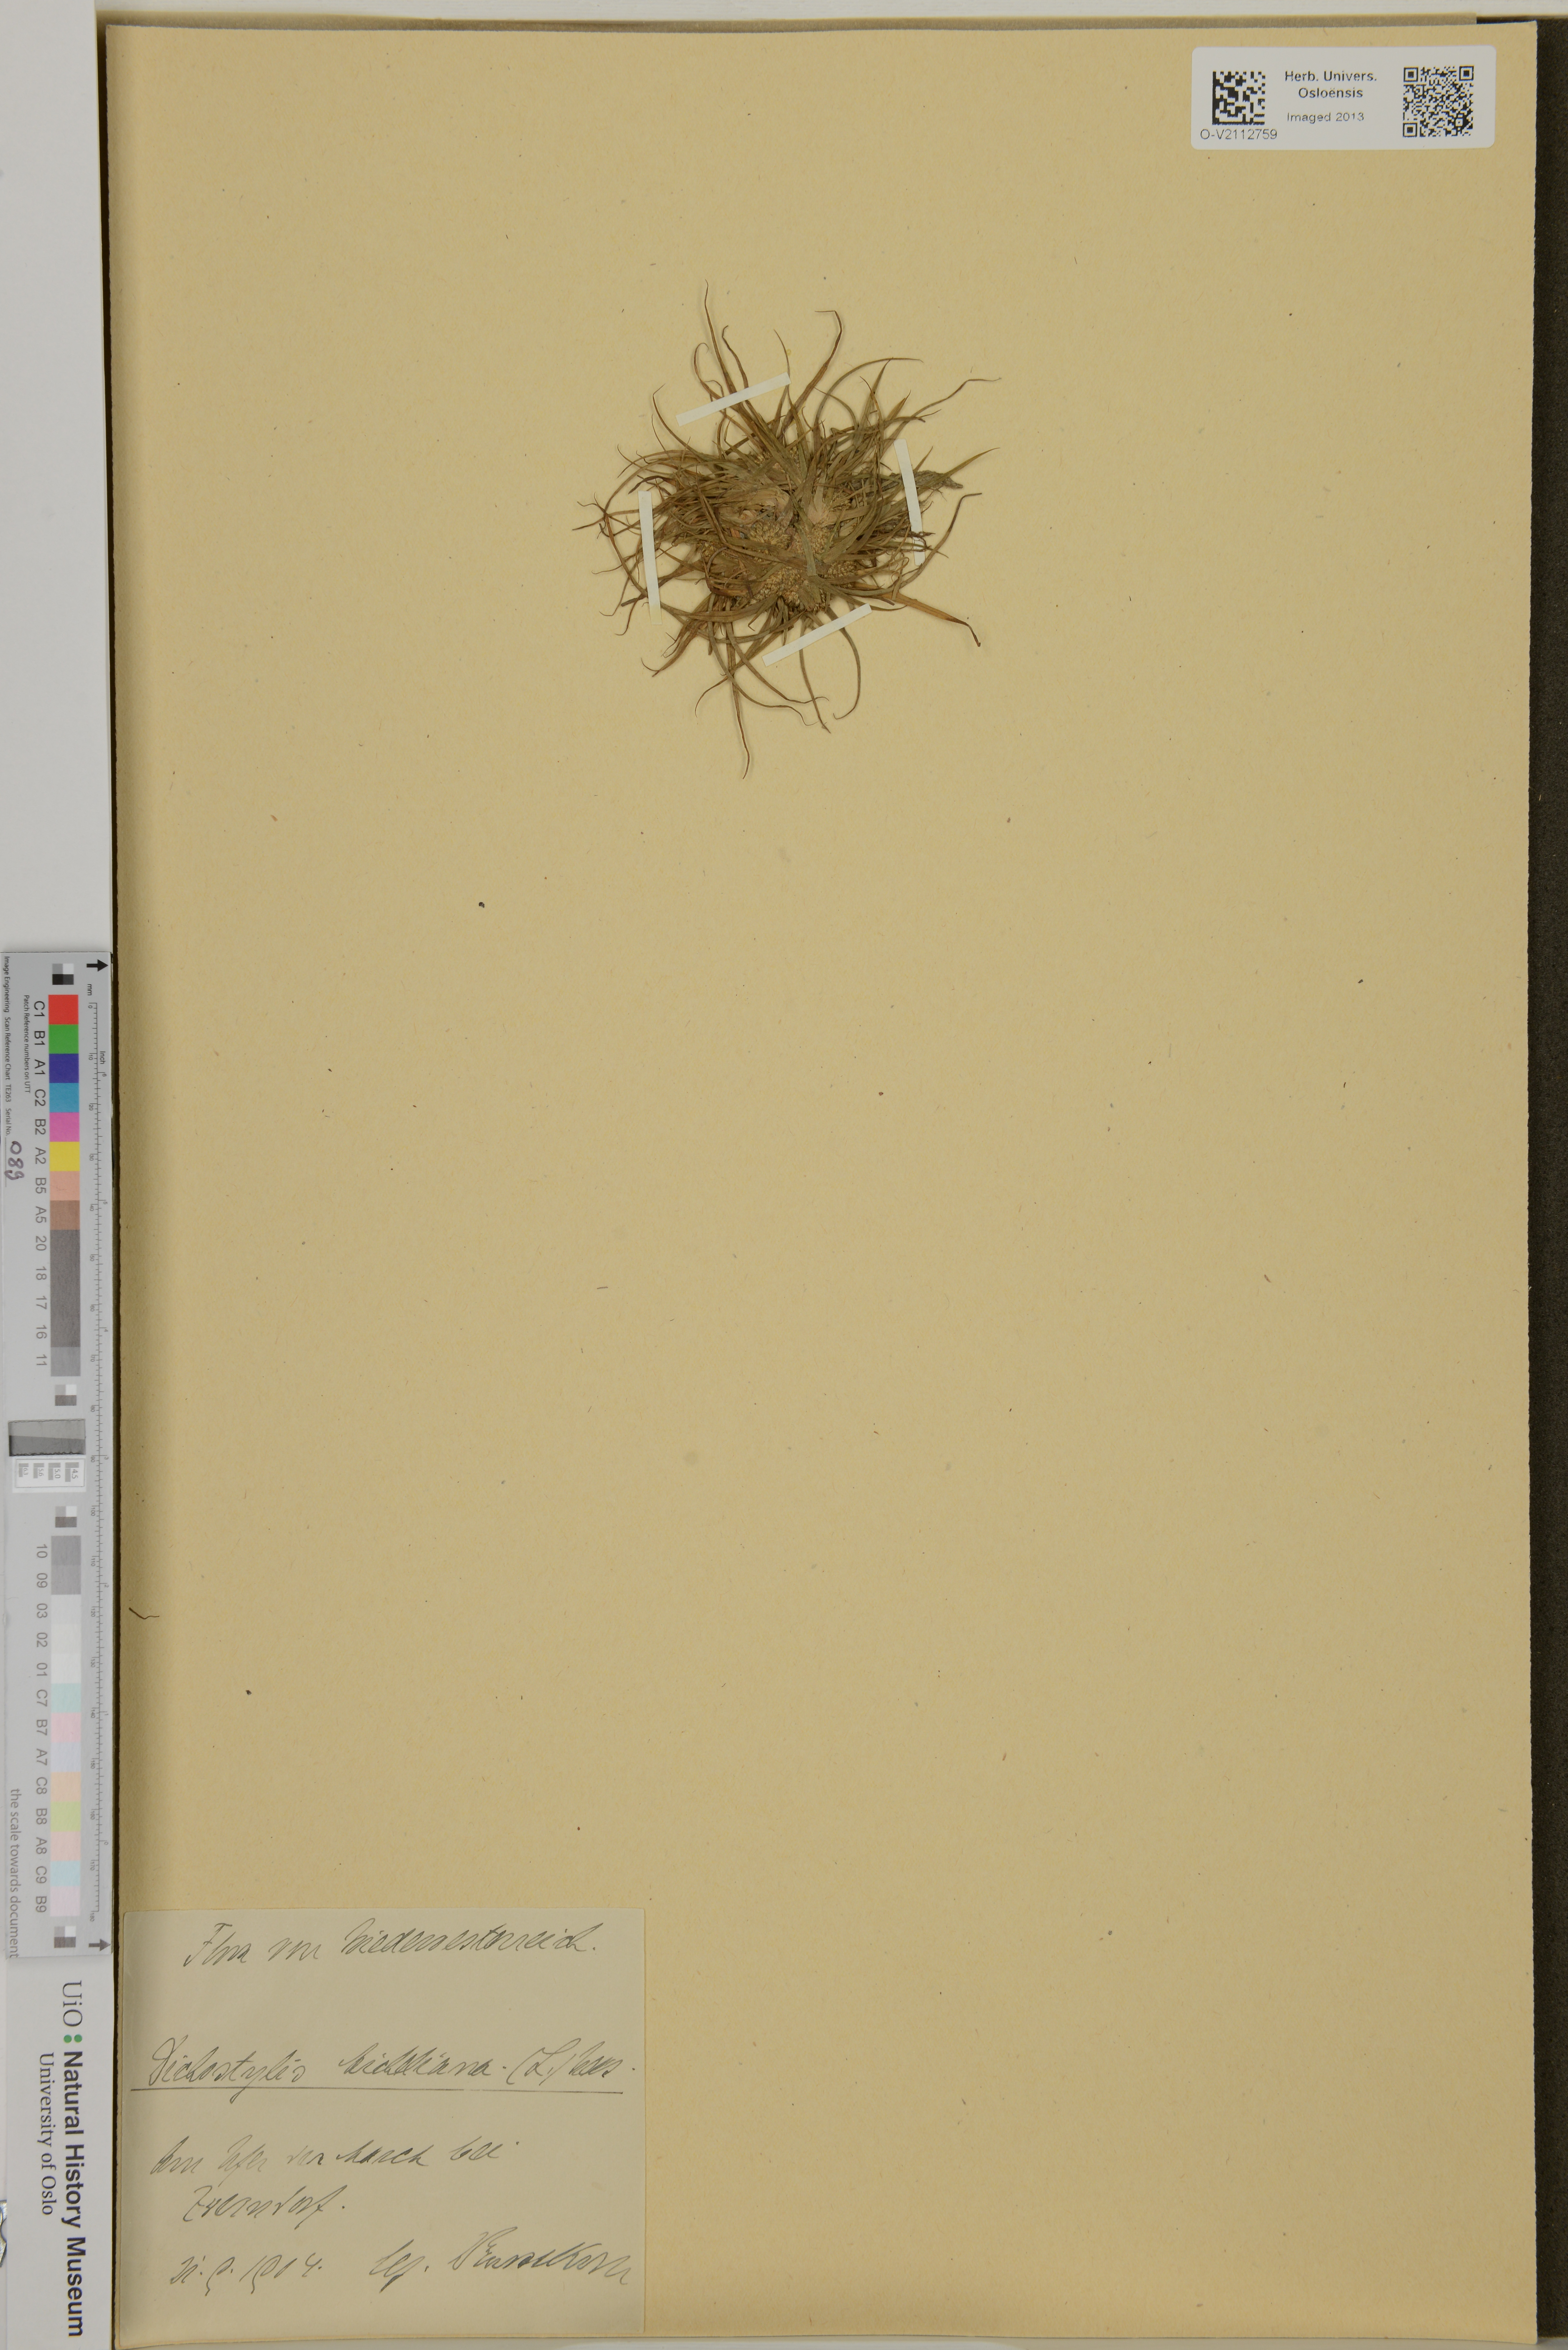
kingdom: Plantae
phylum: Tracheophyta
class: Liliopsida
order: Poales
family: Cyperaceae
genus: Scirpus
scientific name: Scirpus michelianus
